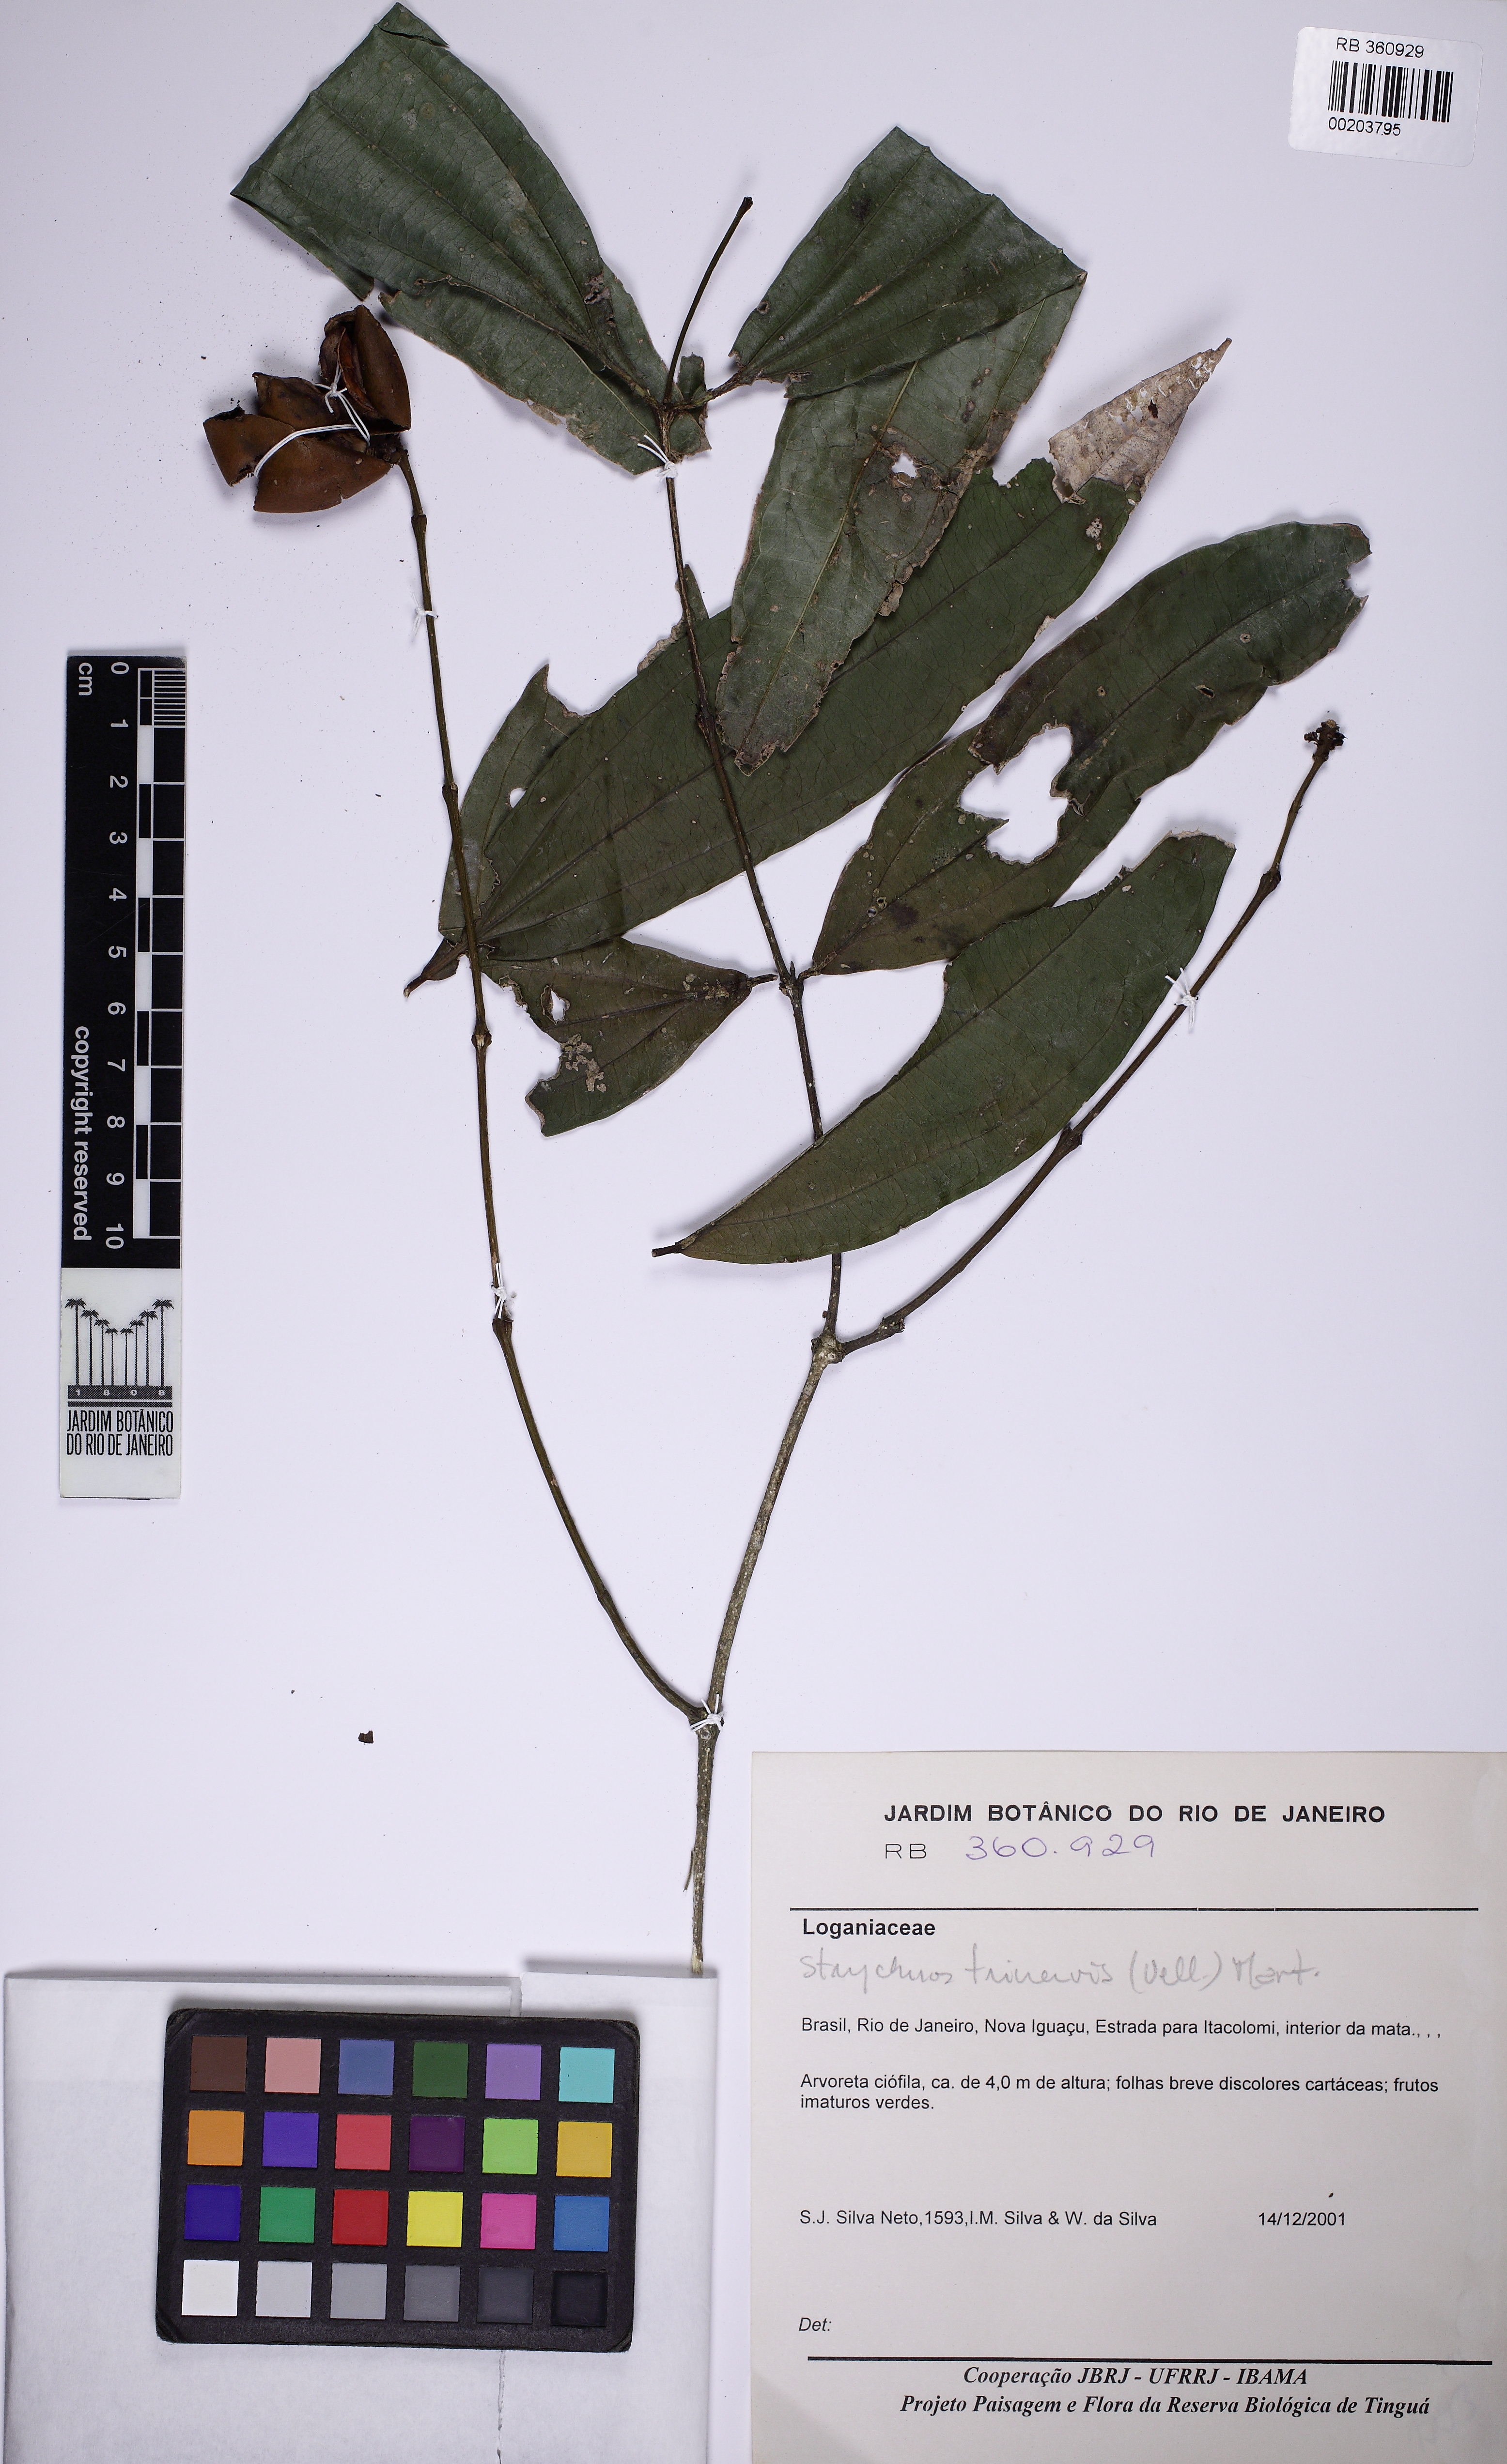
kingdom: Plantae
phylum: Tracheophyta
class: Magnoliopsida
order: Gentianales
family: Loganiaceae
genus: Strychnos
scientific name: Strychnos trinervis
